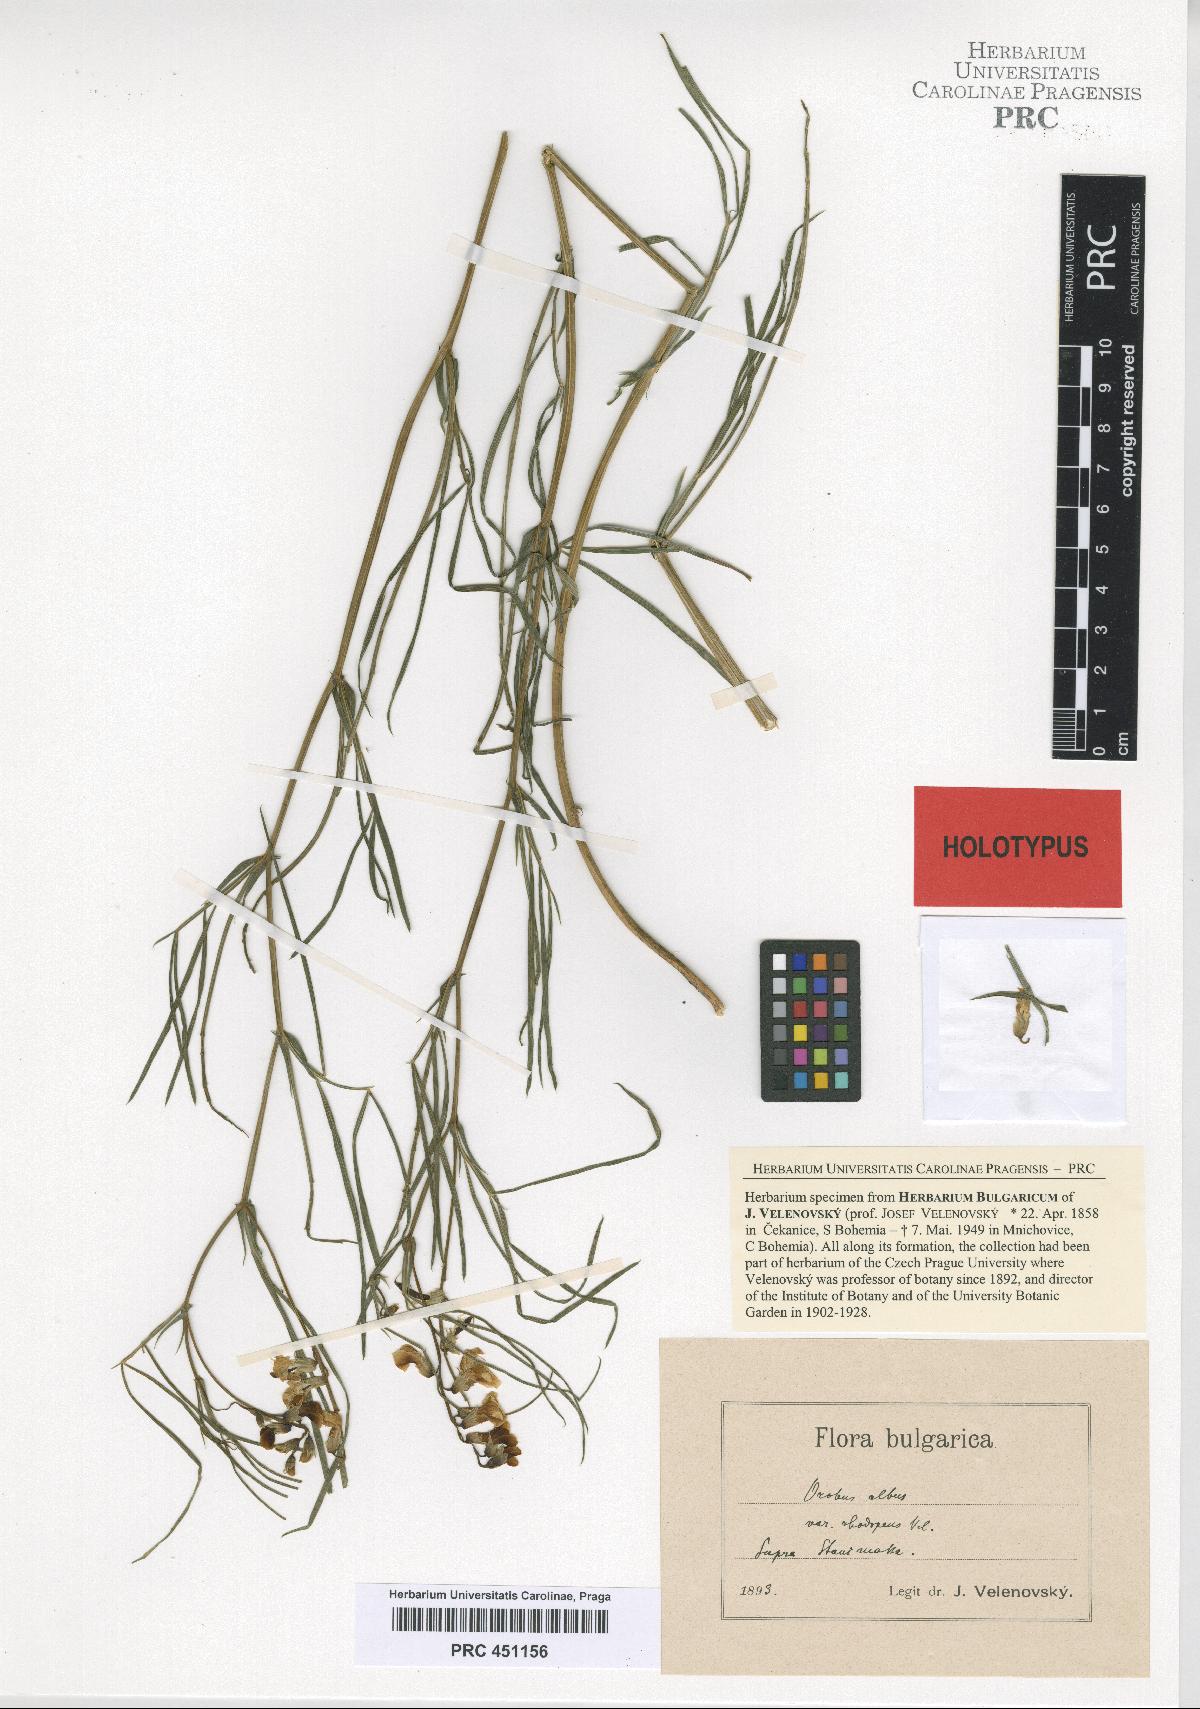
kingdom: Plantae
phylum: Tracheophyta
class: Magnoliopsida
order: Fabales
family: Fabaceae
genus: Lathyrus
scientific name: Lathyrus pannonicus
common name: Pea
